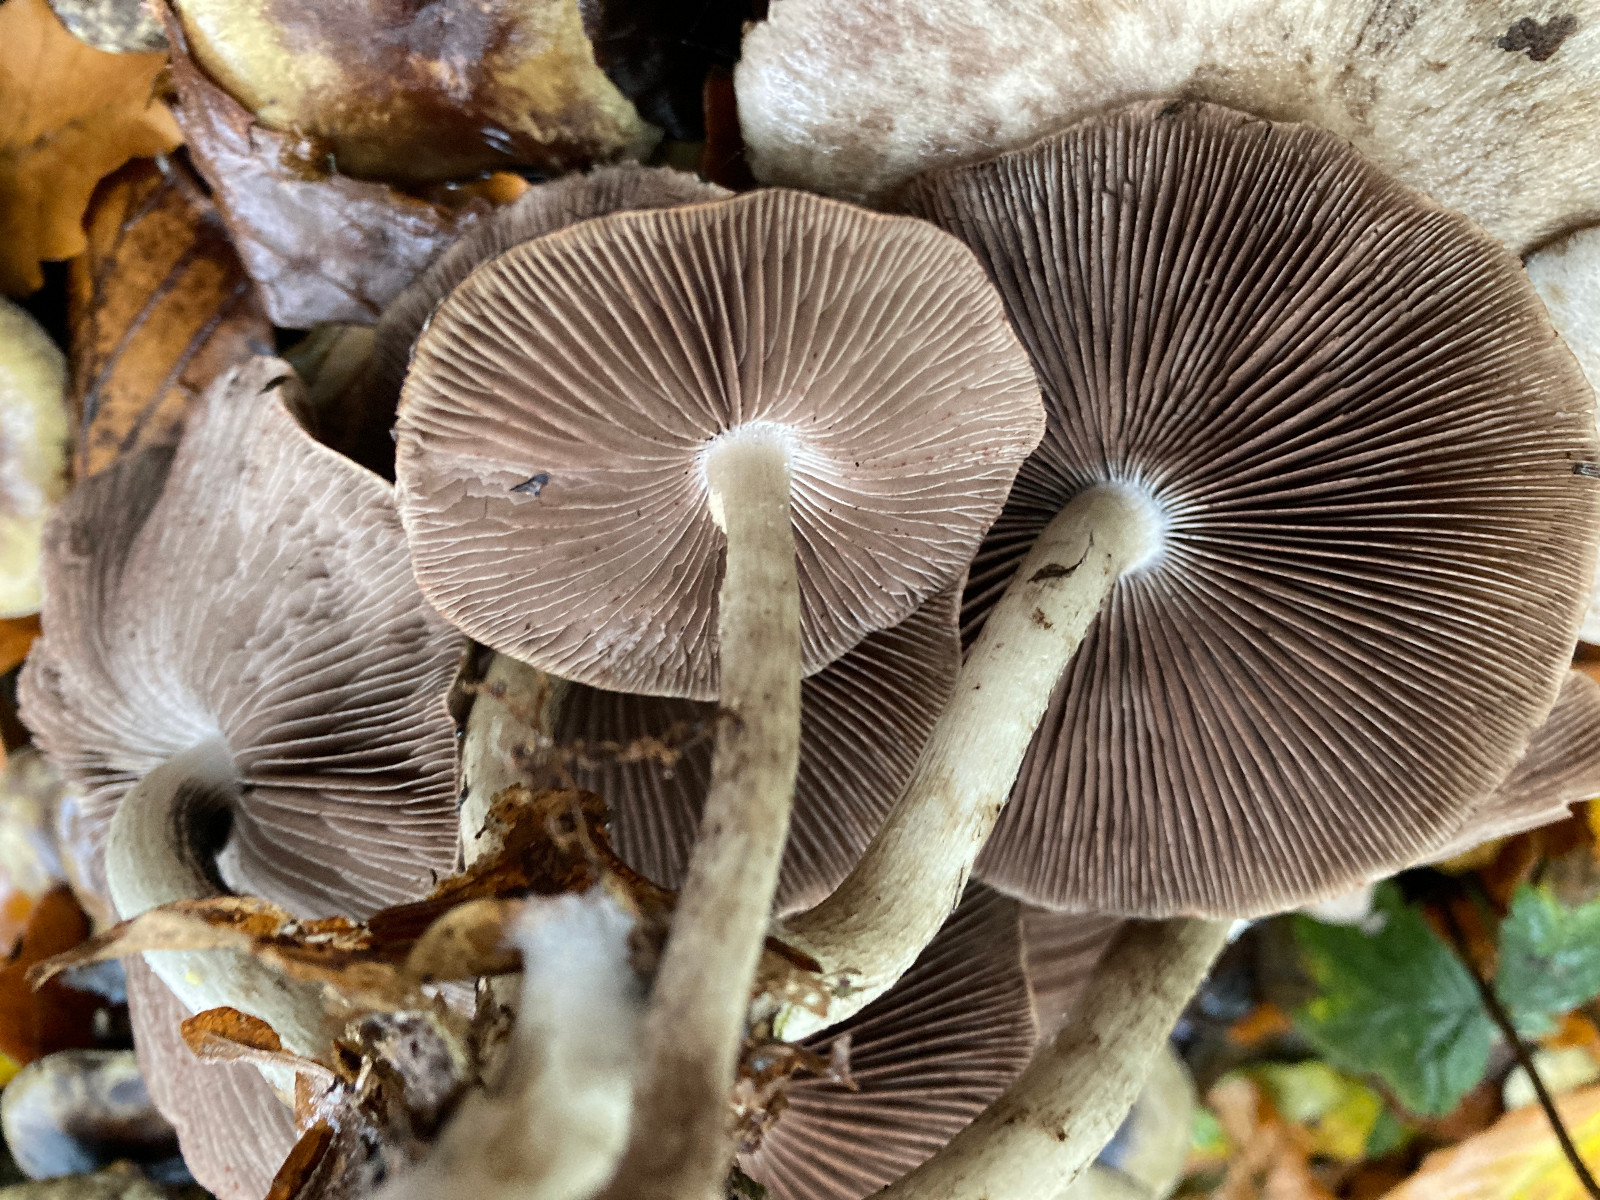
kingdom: Fungi
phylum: Basidiomycota
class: Agaricomycetes
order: Agaricales
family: Psathyrellaceae
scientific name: Psathyrellaceae
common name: mørkhatfamilien
